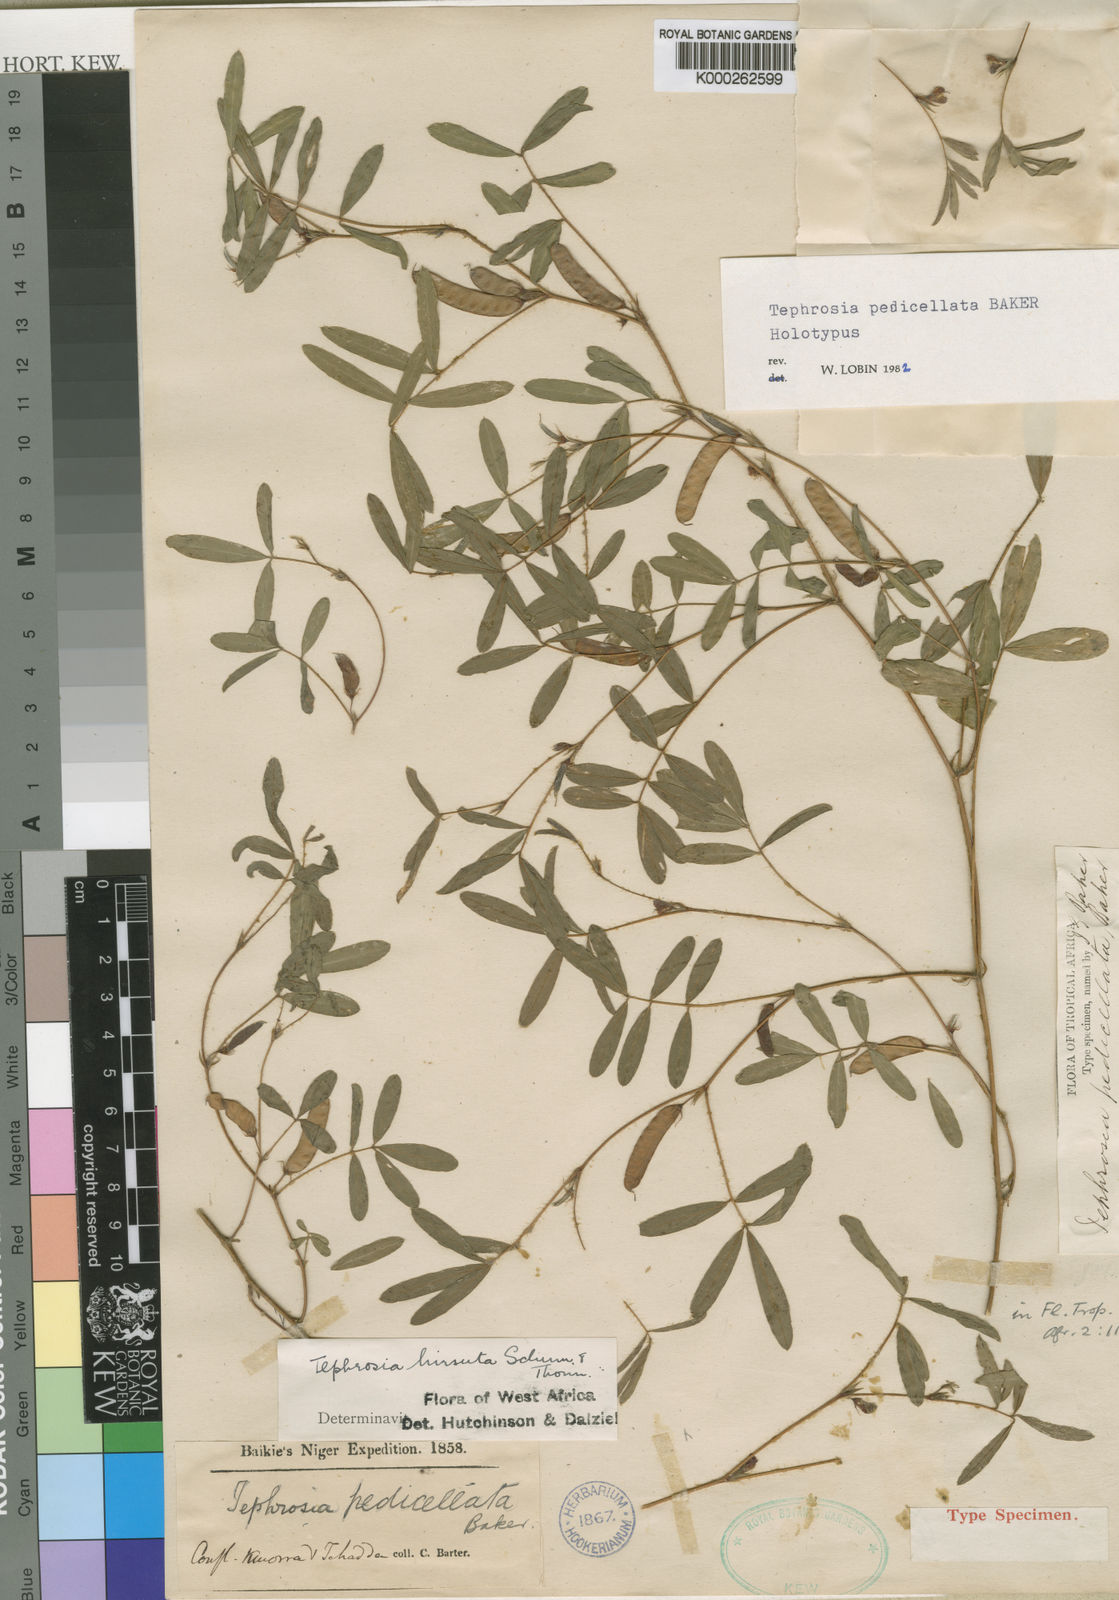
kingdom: Plantae
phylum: Tracheophyta
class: Magnoliopsida
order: Fabales
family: Fabaceae
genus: Tephrosia
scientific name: Tephrosia pedicellata
